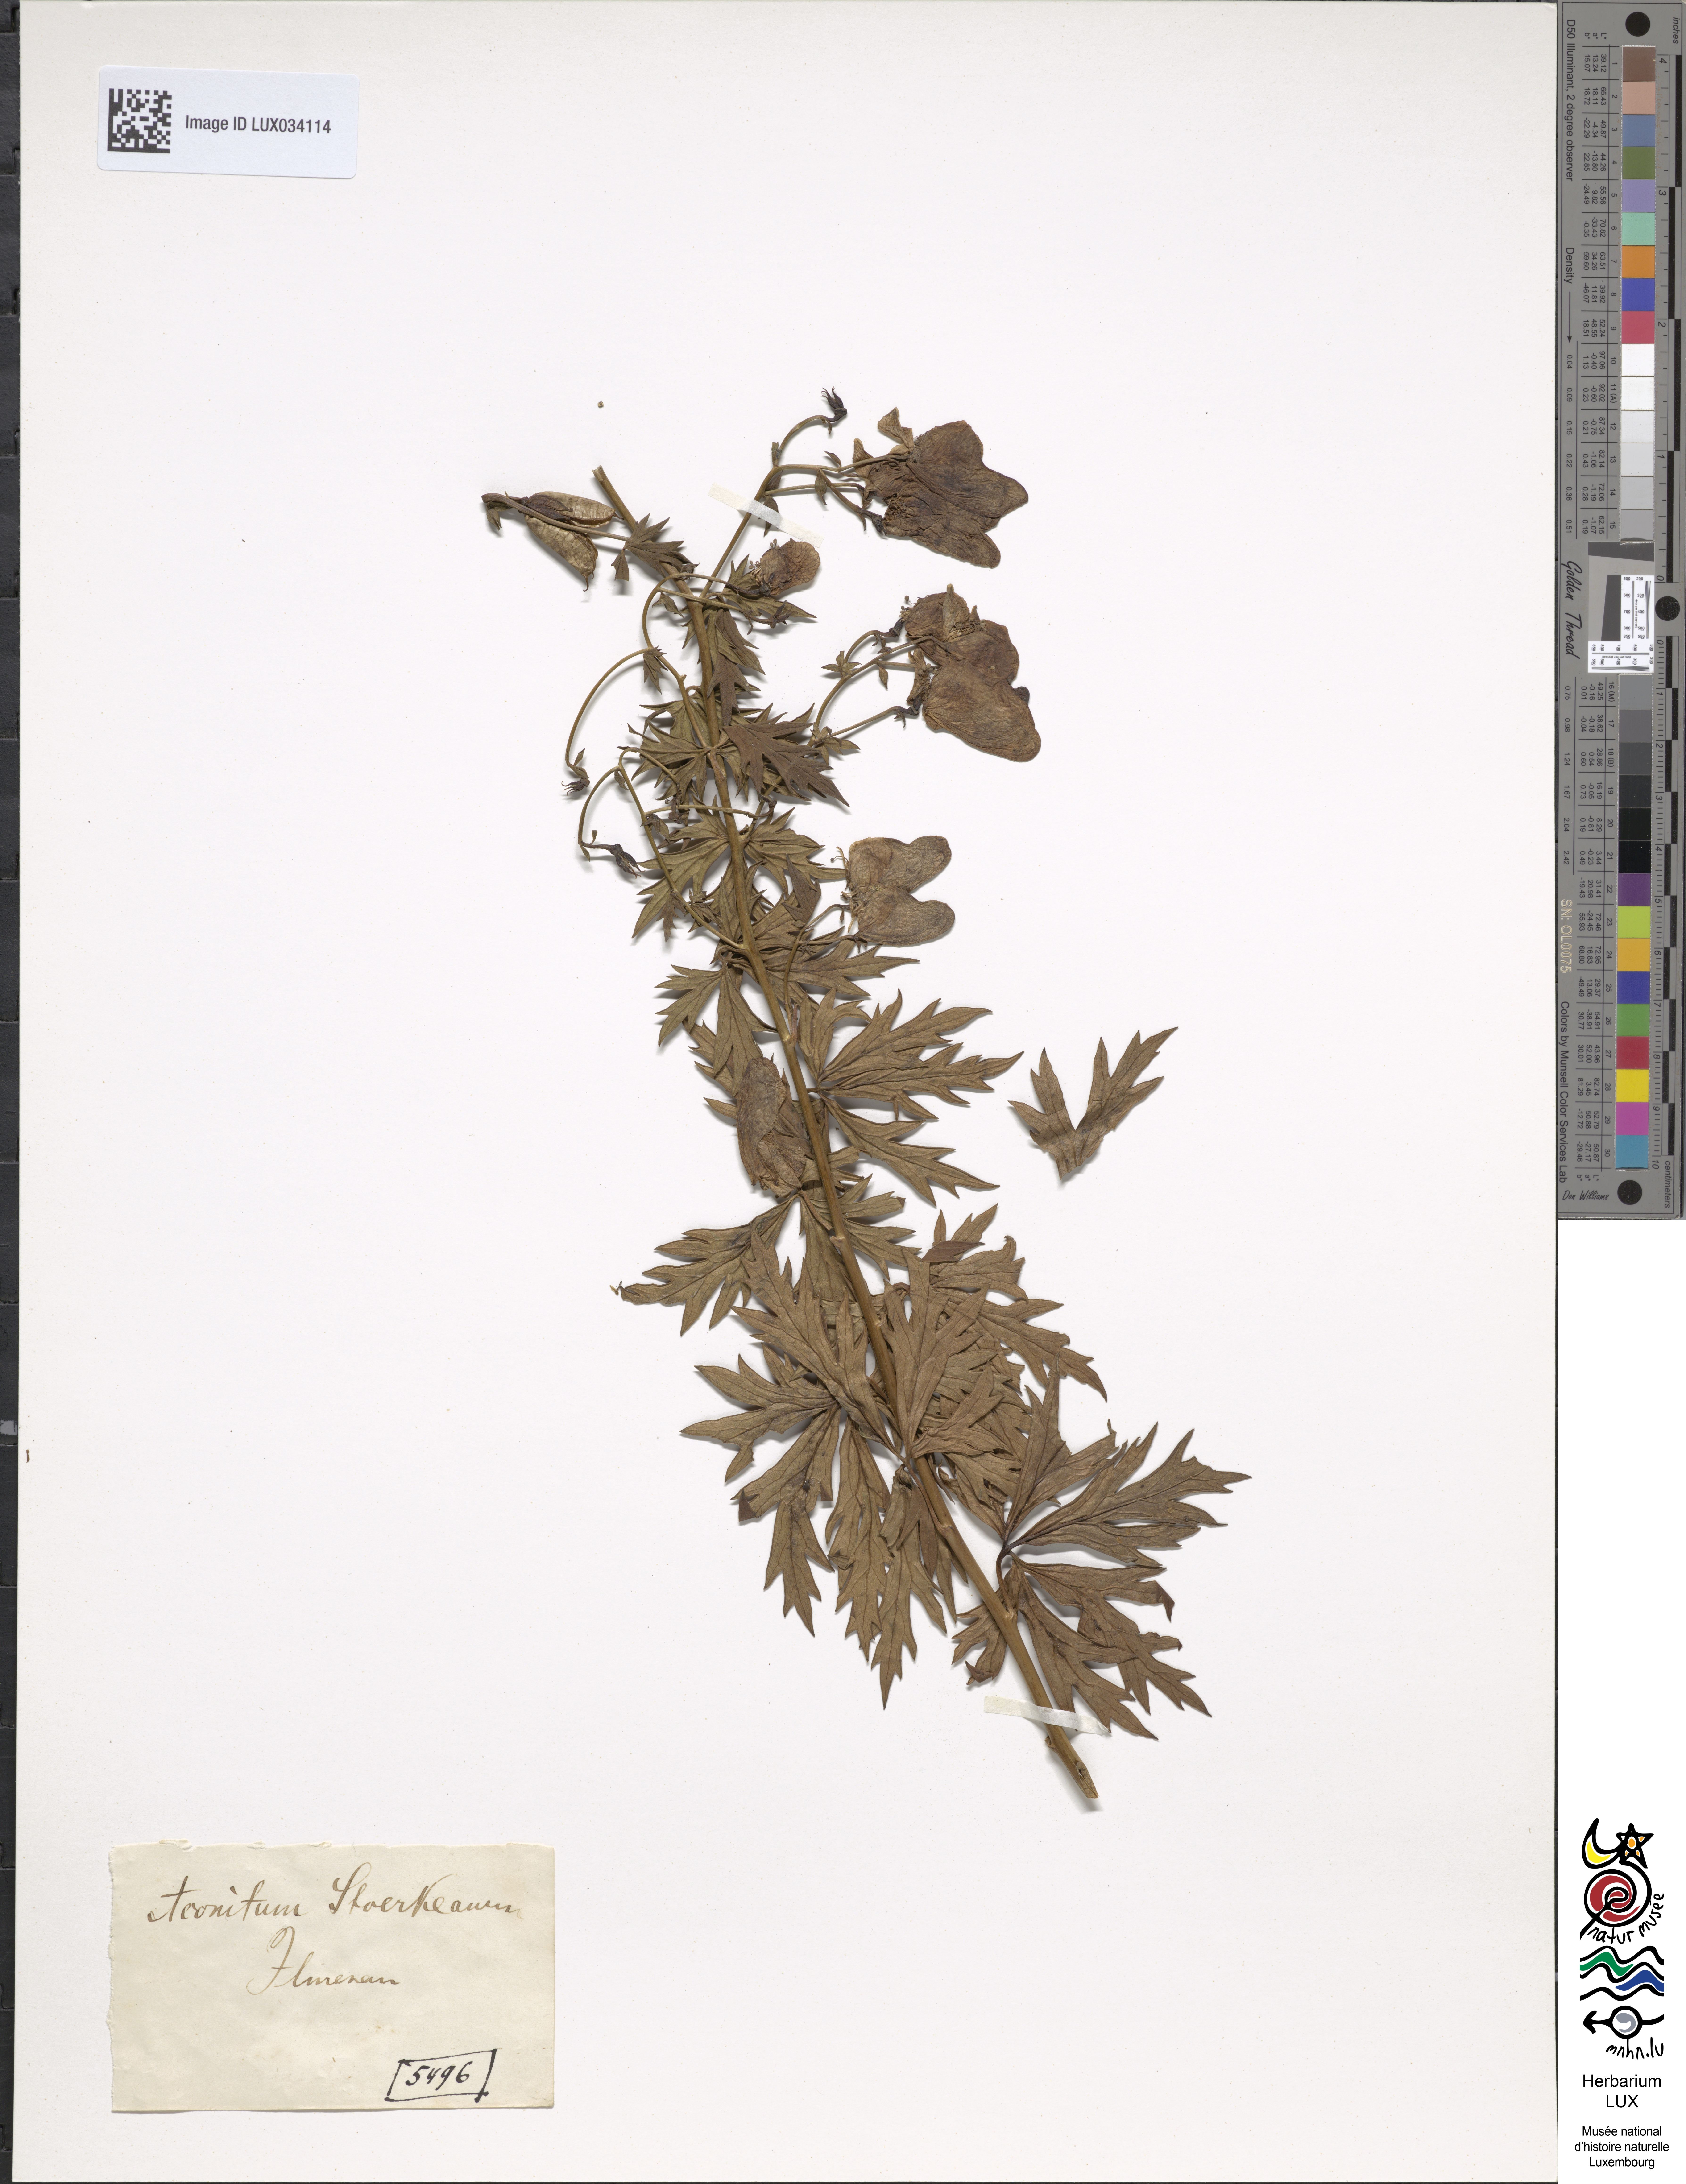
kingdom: Plantae
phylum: Tracheophyta
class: Magnoliopsida
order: Ranunculales
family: Ranunculaceae
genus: Aconitum
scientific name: Aconitum cammarum
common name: Hybrid monk's-hood
